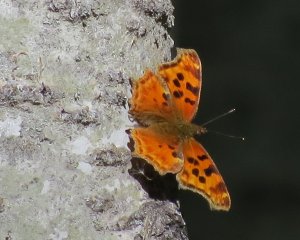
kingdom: Animalia
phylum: Arthropoda
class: Insecta
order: Lepidoptera
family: Nymphalidae
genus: Polygonia
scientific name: Polygonia
